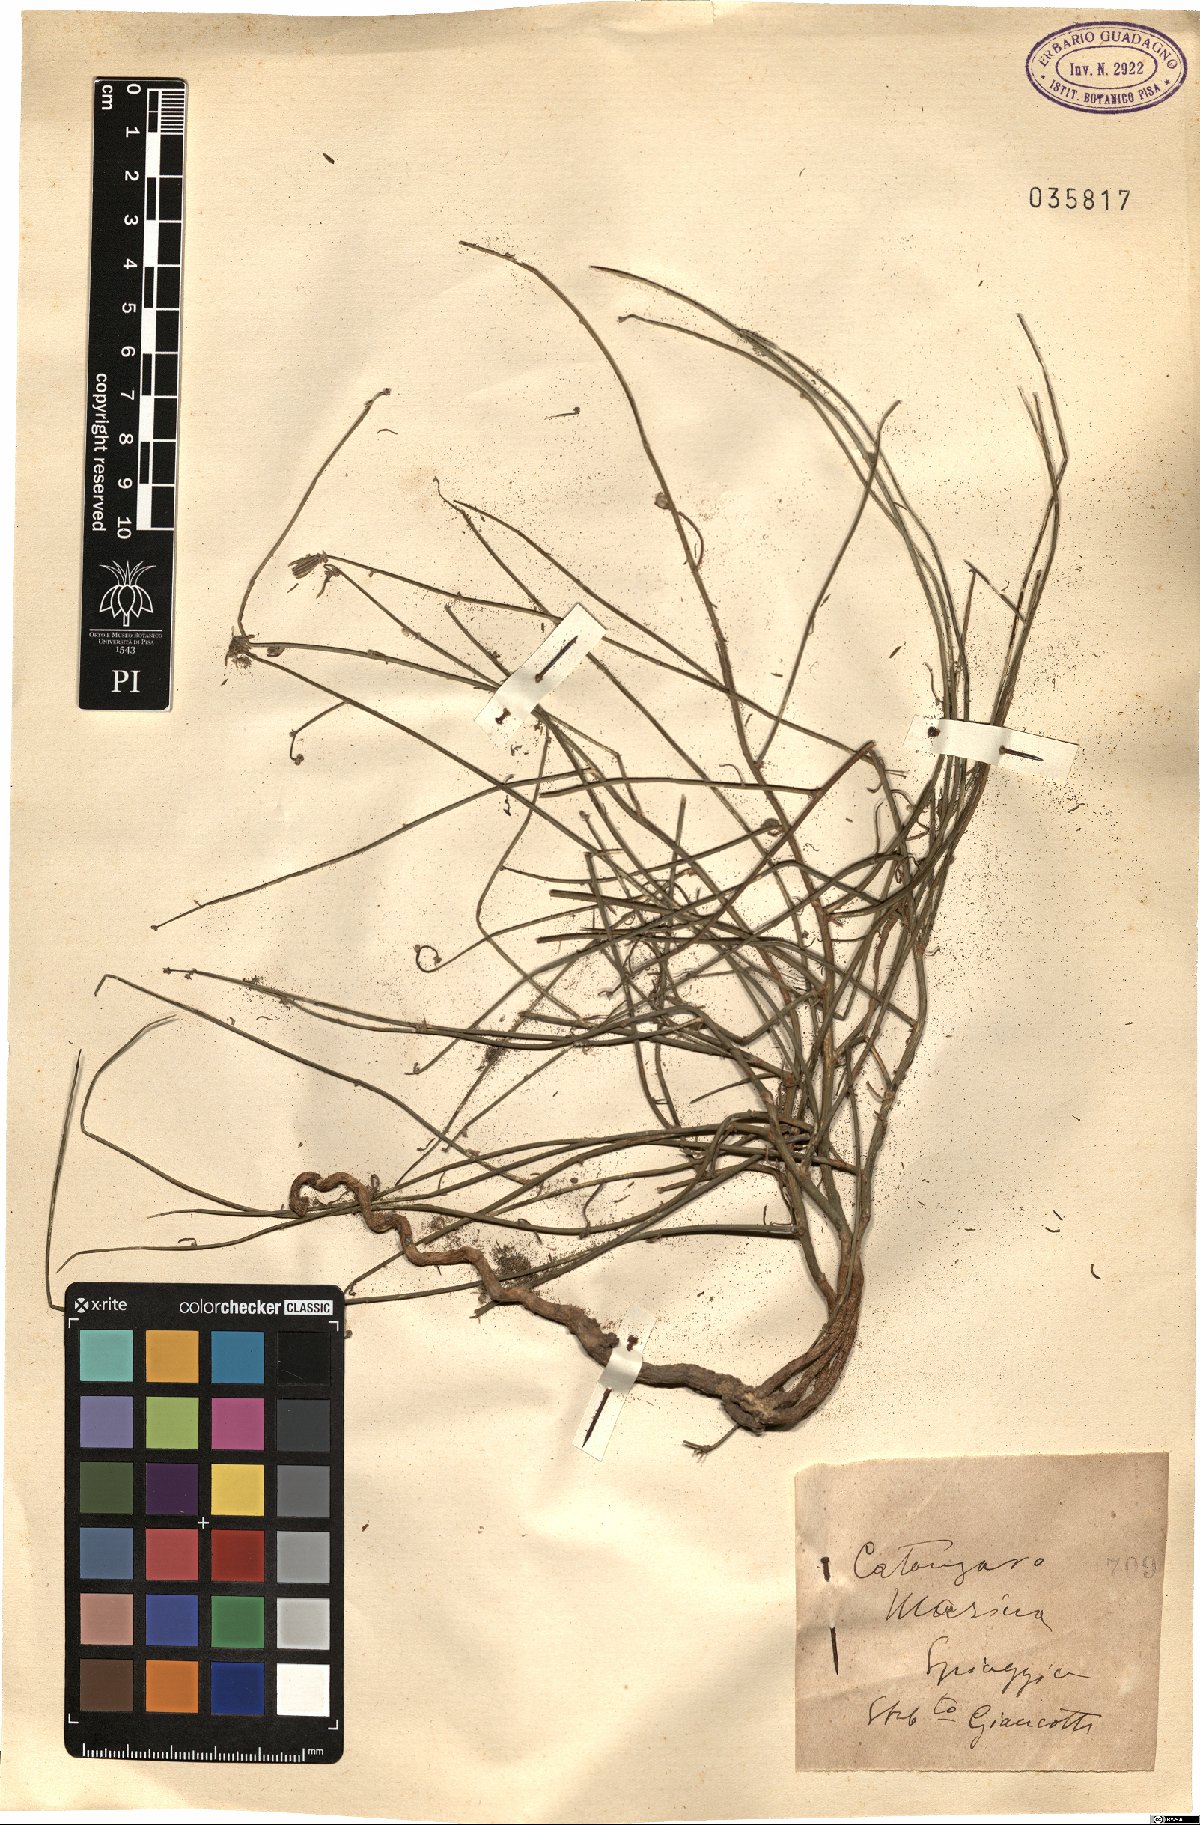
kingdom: Plantae
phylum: Tracheophyta
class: Magnoliopsida
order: Asterales
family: Asteraceae
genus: Chondrilla
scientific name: Chondrilla
